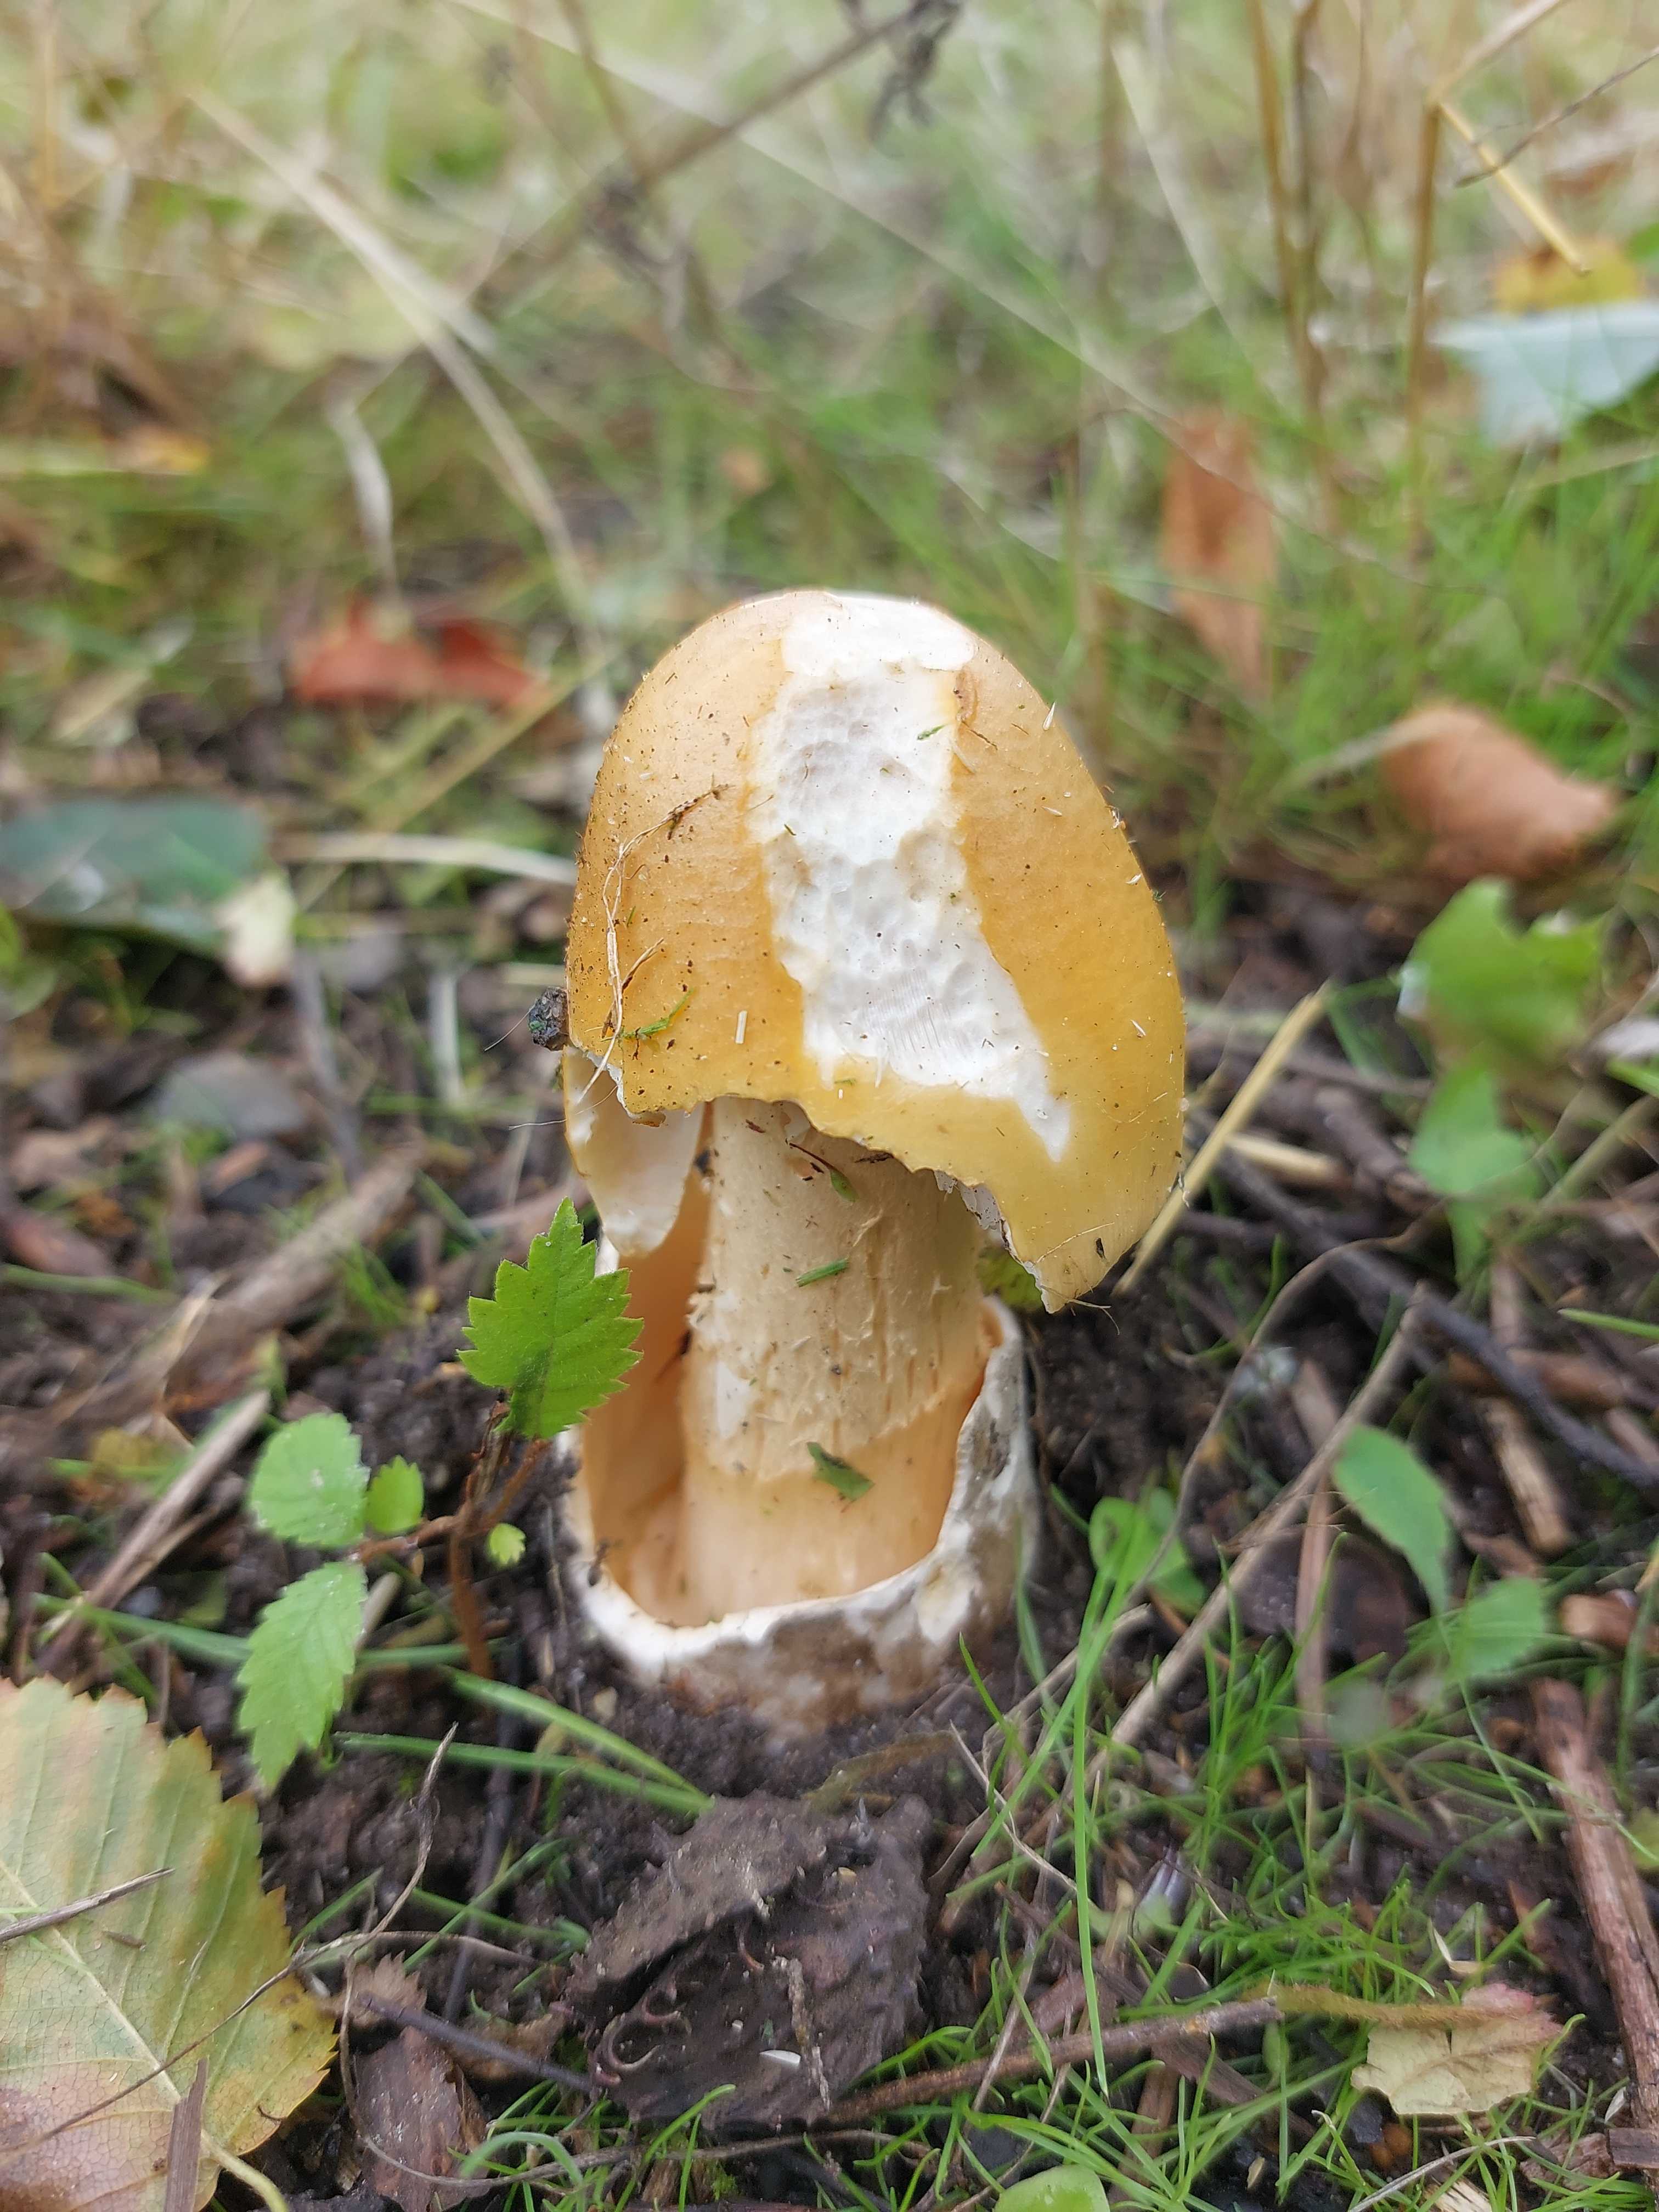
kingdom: Fungi
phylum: Basidiomycota
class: Agaricomycetes
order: Agaricales
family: Amanitaceae
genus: Amanita
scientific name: Amanita crocea
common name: gylden kam-fluesvamp
